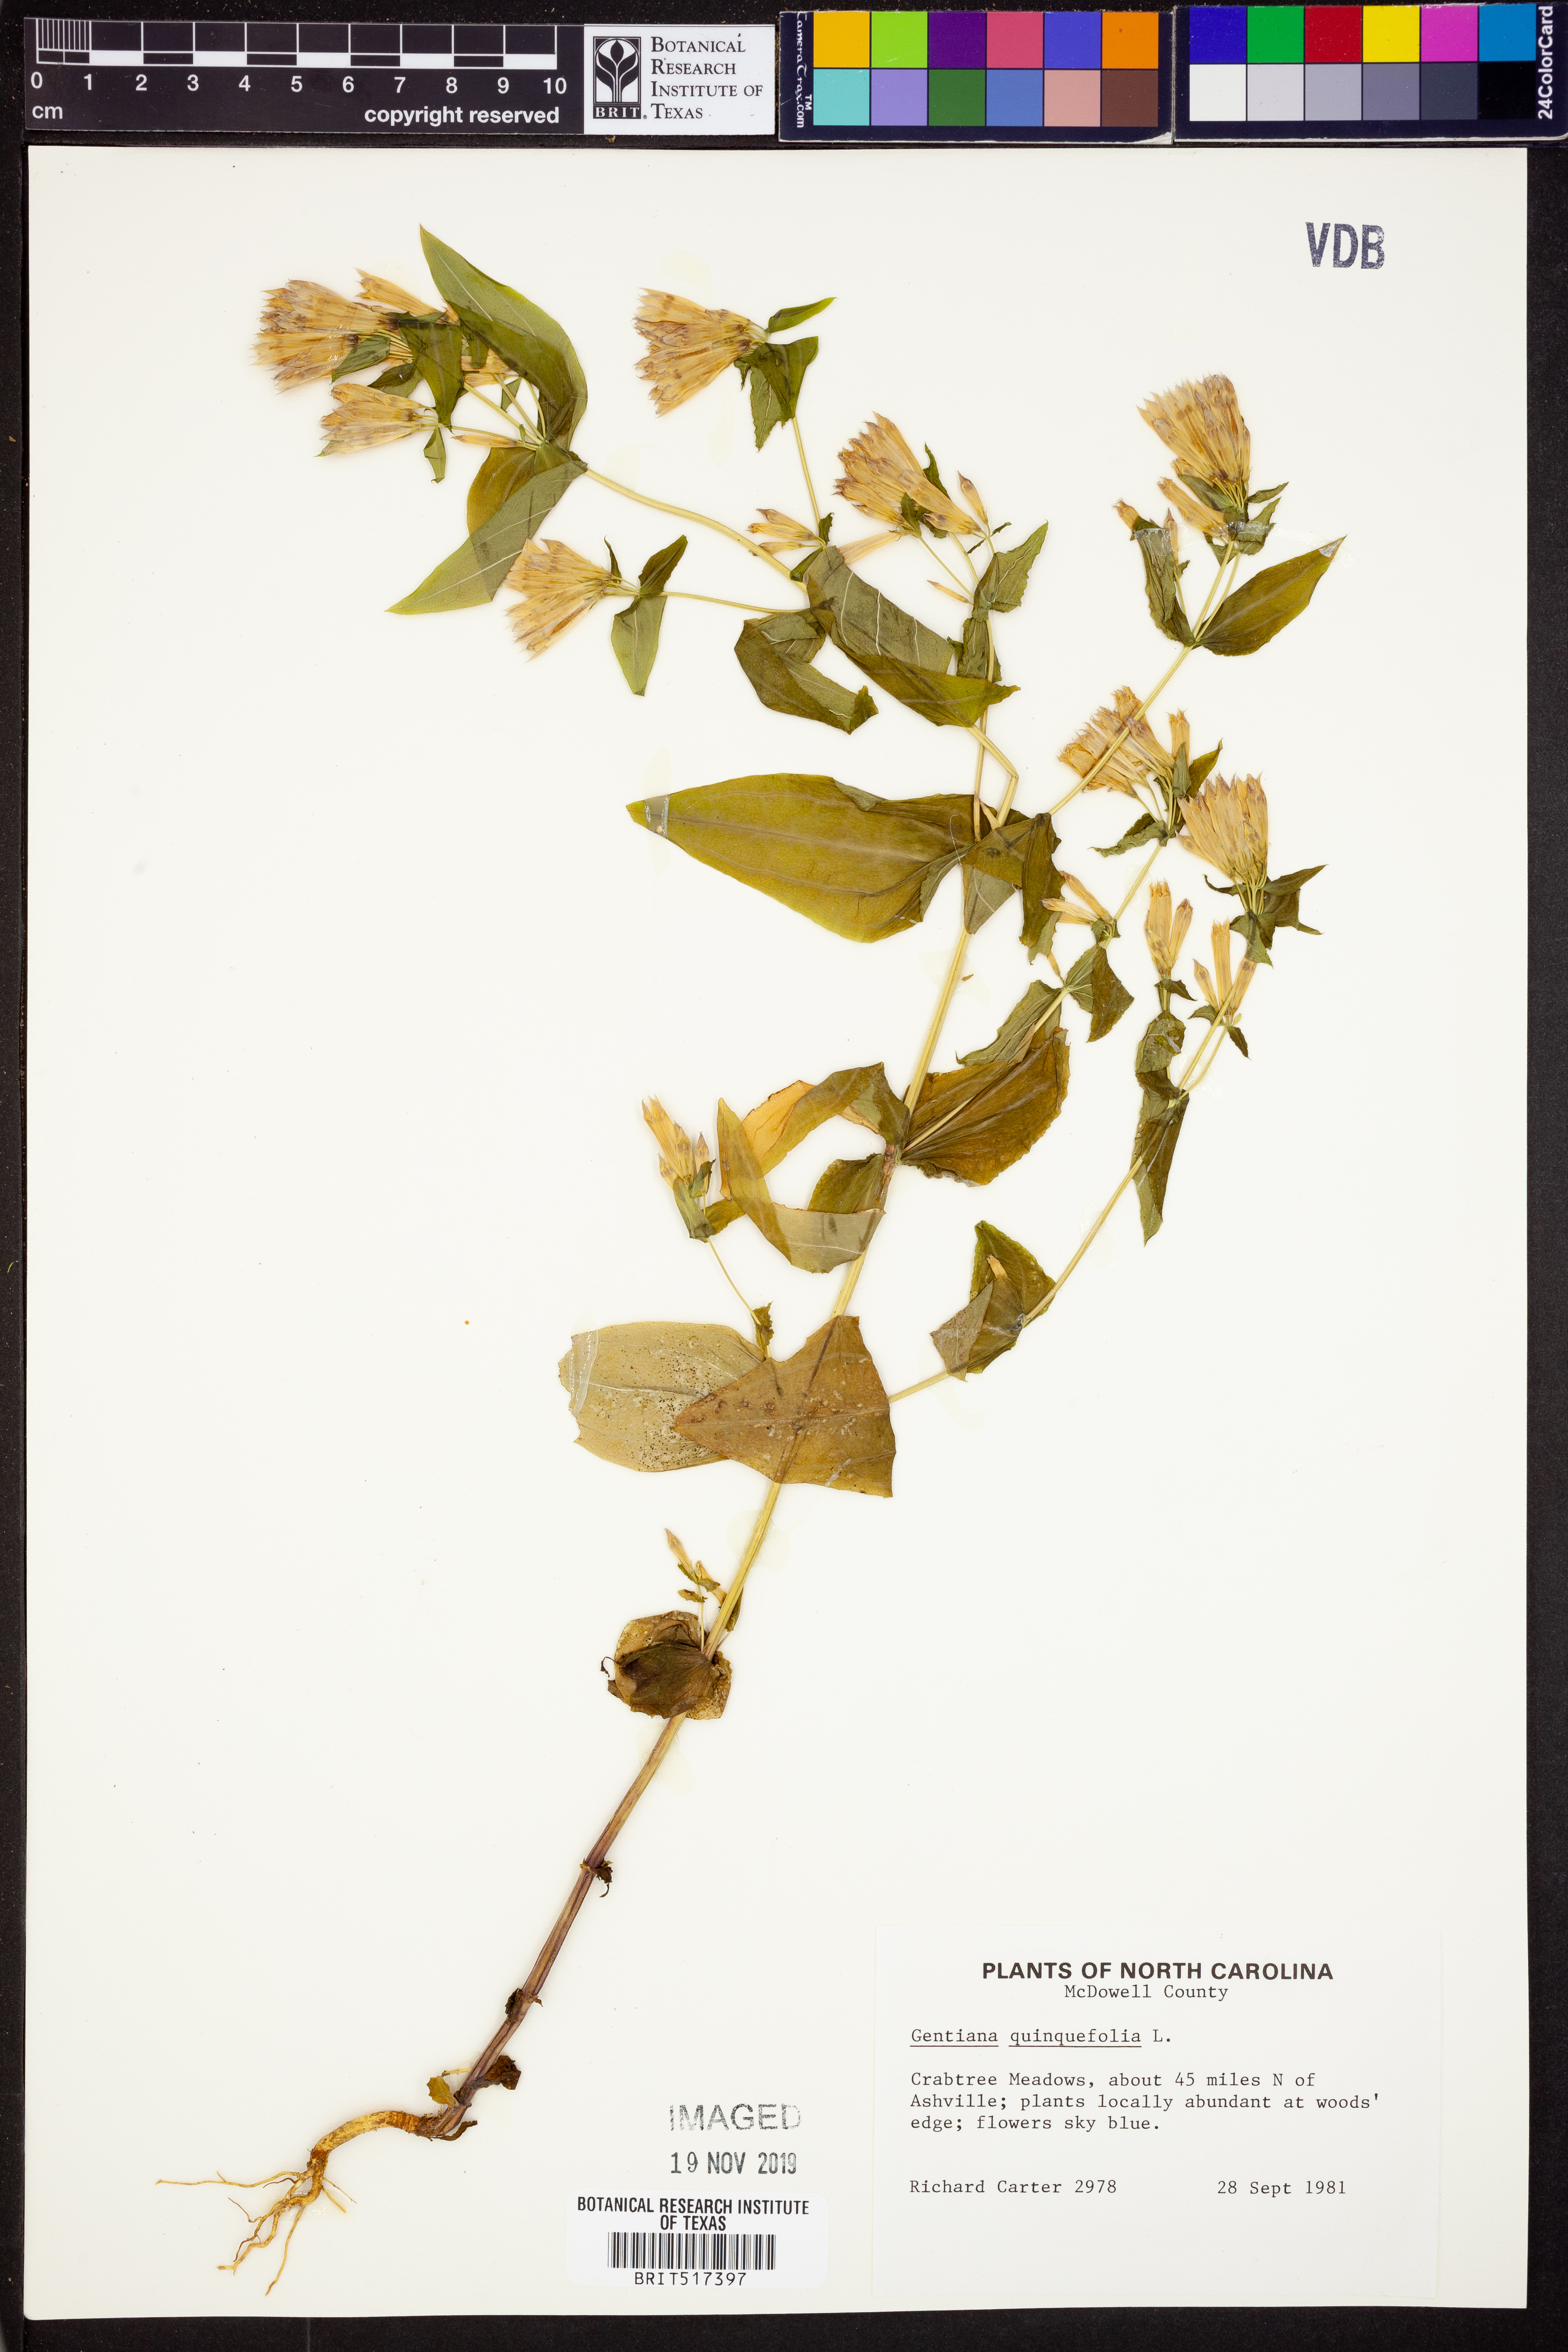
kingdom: Plantae
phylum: Tracheophyta
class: Magnoliopsida
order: Gentianales
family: Gentianaceae
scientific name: Gentianaceae
